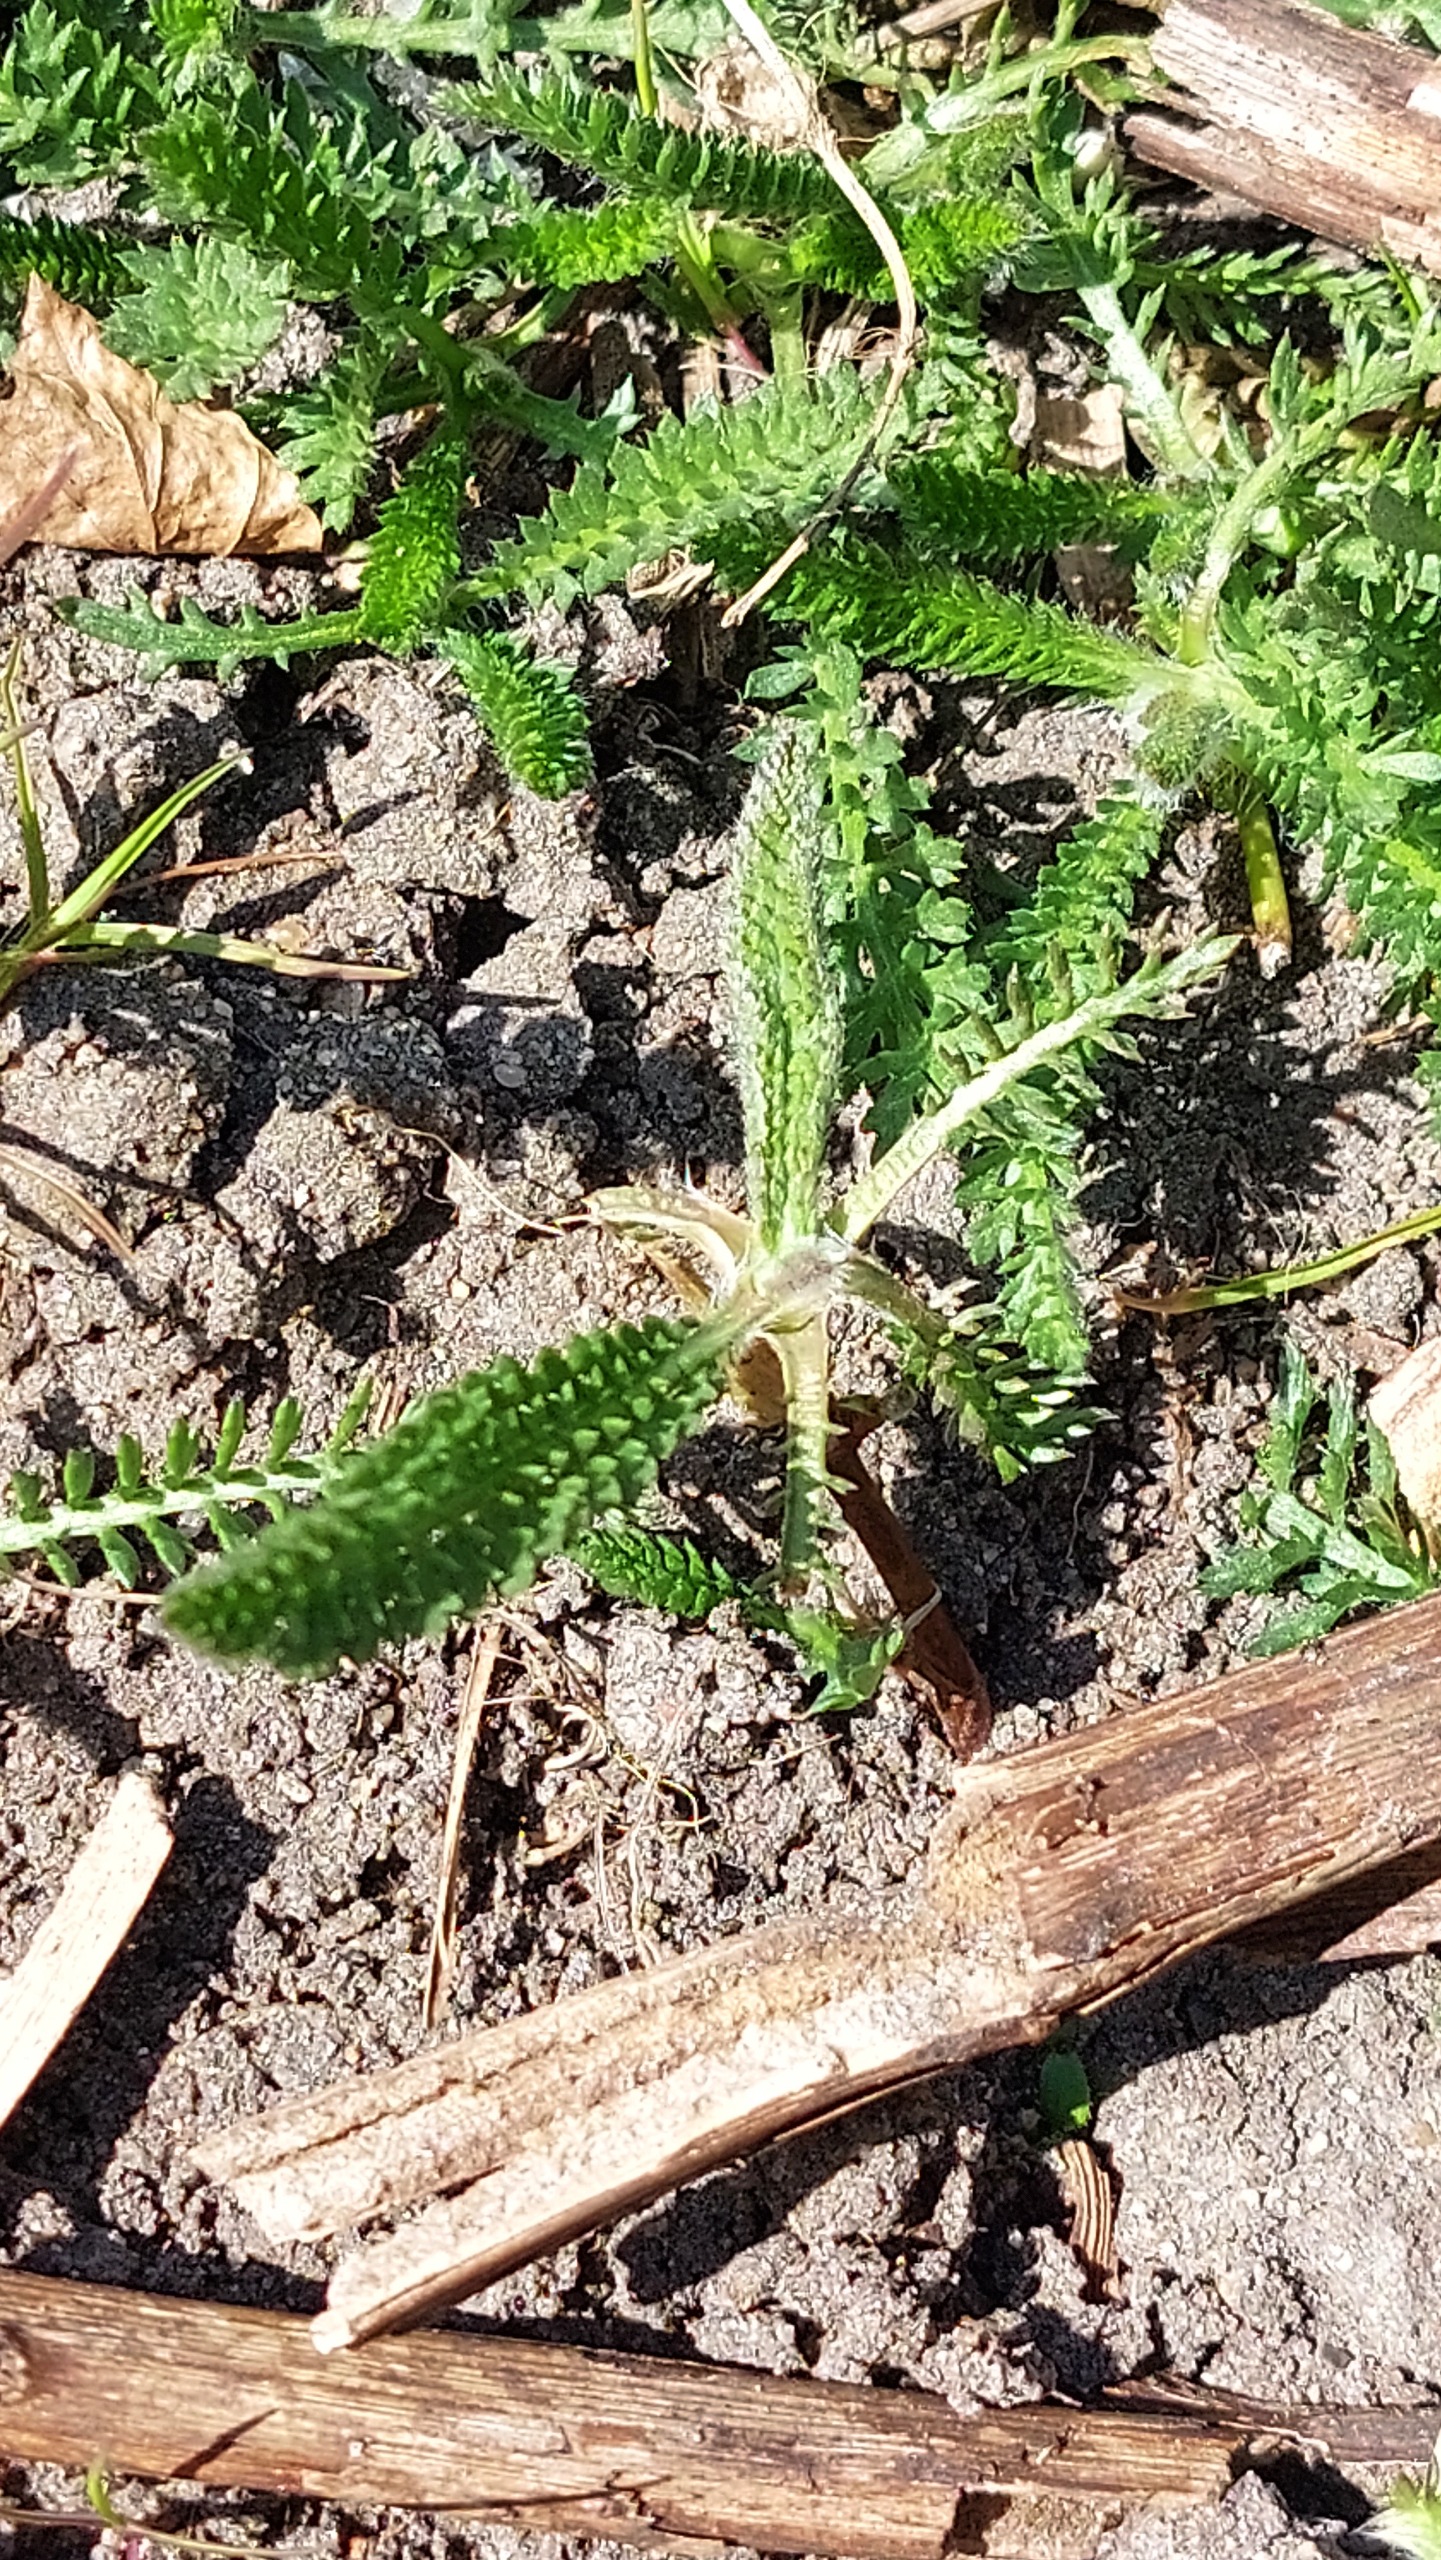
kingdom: Plantae
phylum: Tracheophyta
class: Magnoliopsida
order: Asterales
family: Asteraceae
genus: Achillea
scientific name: Achillea millefolium
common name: Almindelig røllike
